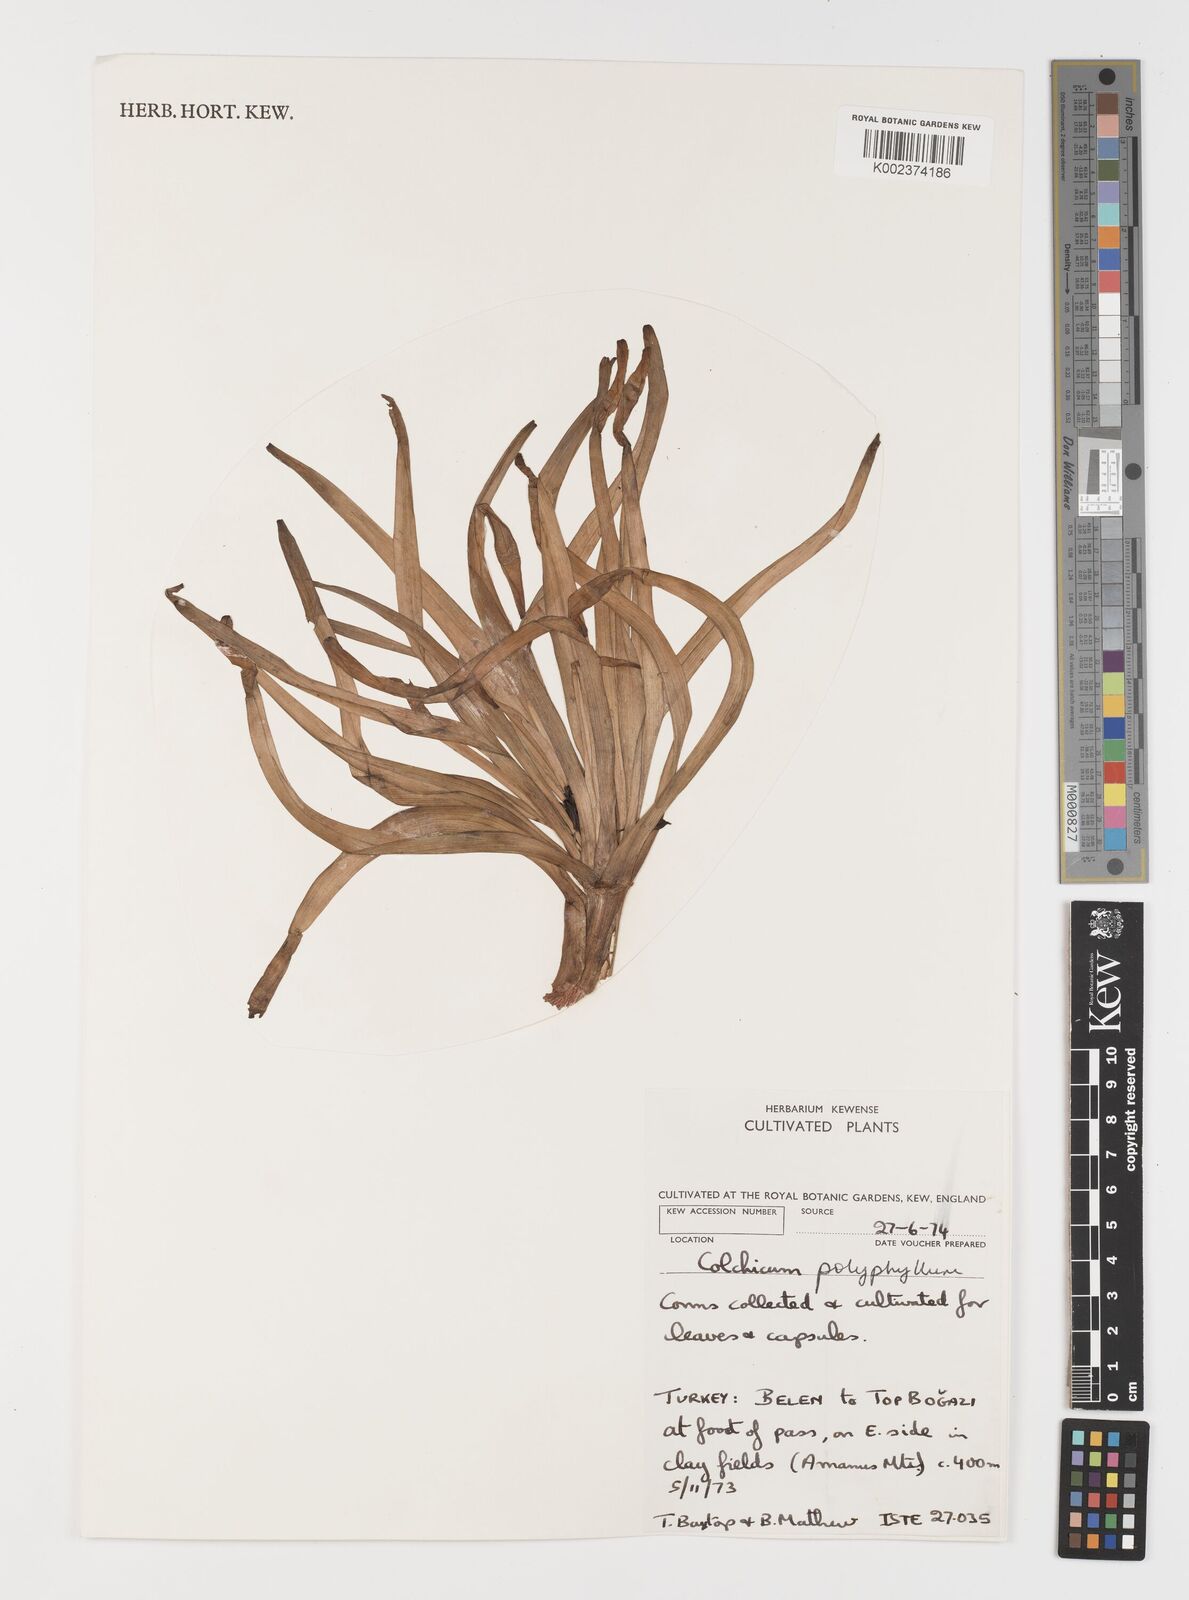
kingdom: Plantae
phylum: Tracheophyta
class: Liliopsida
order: Liliales
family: Colchicaceae
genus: Colchicum
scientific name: Colchicum polyphyllum
